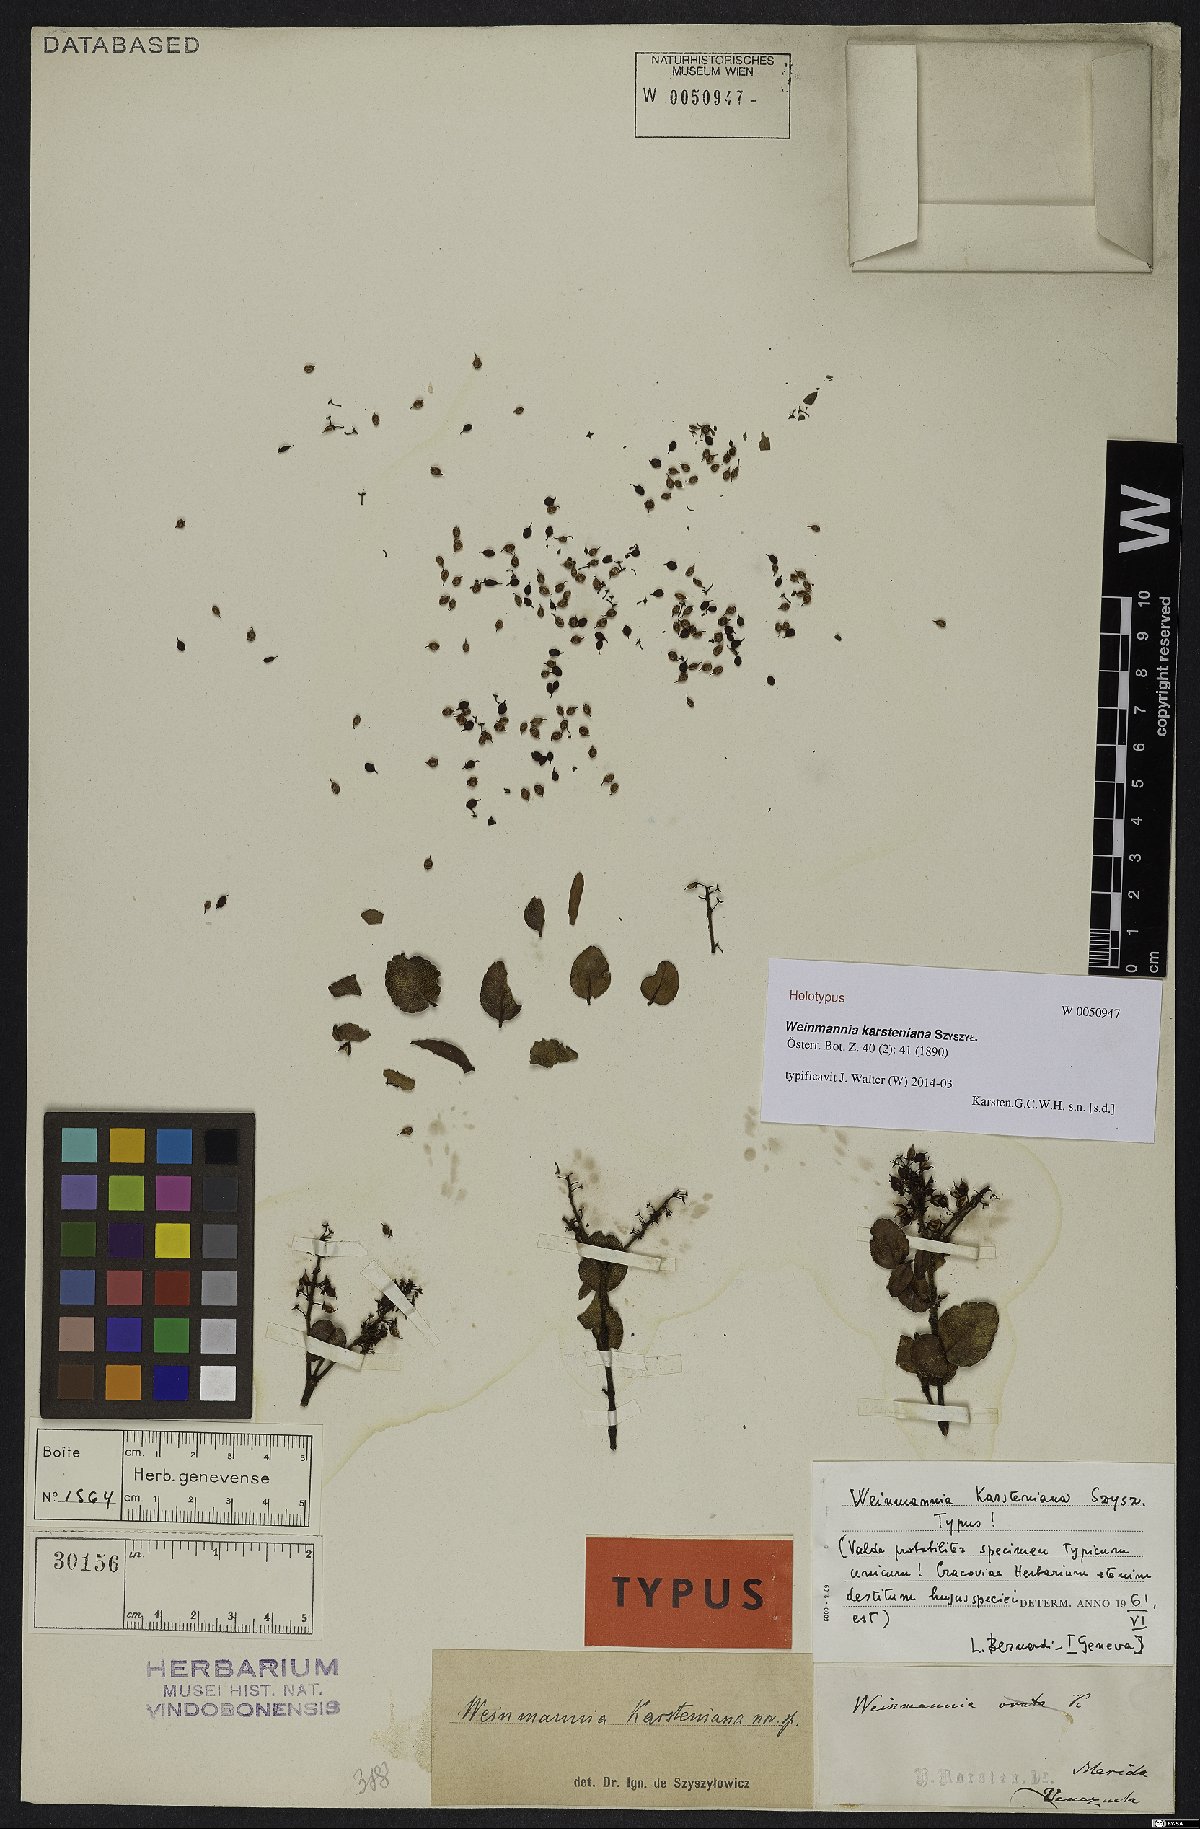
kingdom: Plantae
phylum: Tracheophyta
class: Magnoliopsida
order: Oxalidales
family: Cunoniaceae
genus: Weinmannia
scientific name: Weinmannia karsteniana
